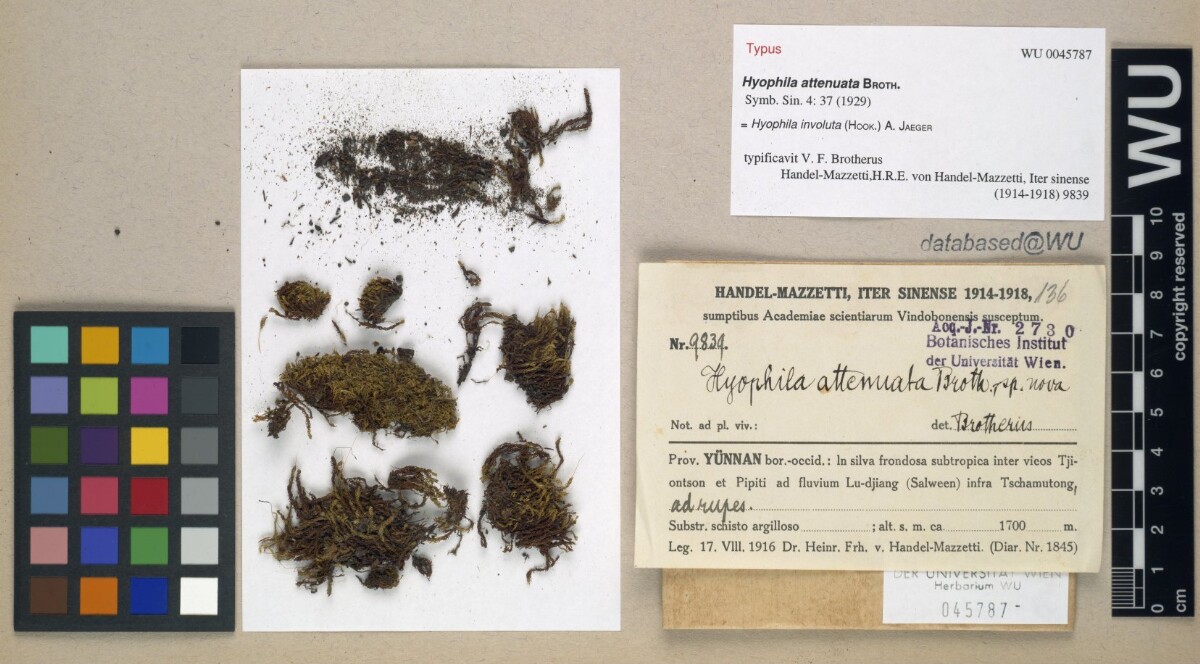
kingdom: Plantae
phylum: Bryophyta
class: Bryopsida
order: Pottiales
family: Pottiaceae
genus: Hyophila
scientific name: Hyophila involuta
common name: Hyophila moss
